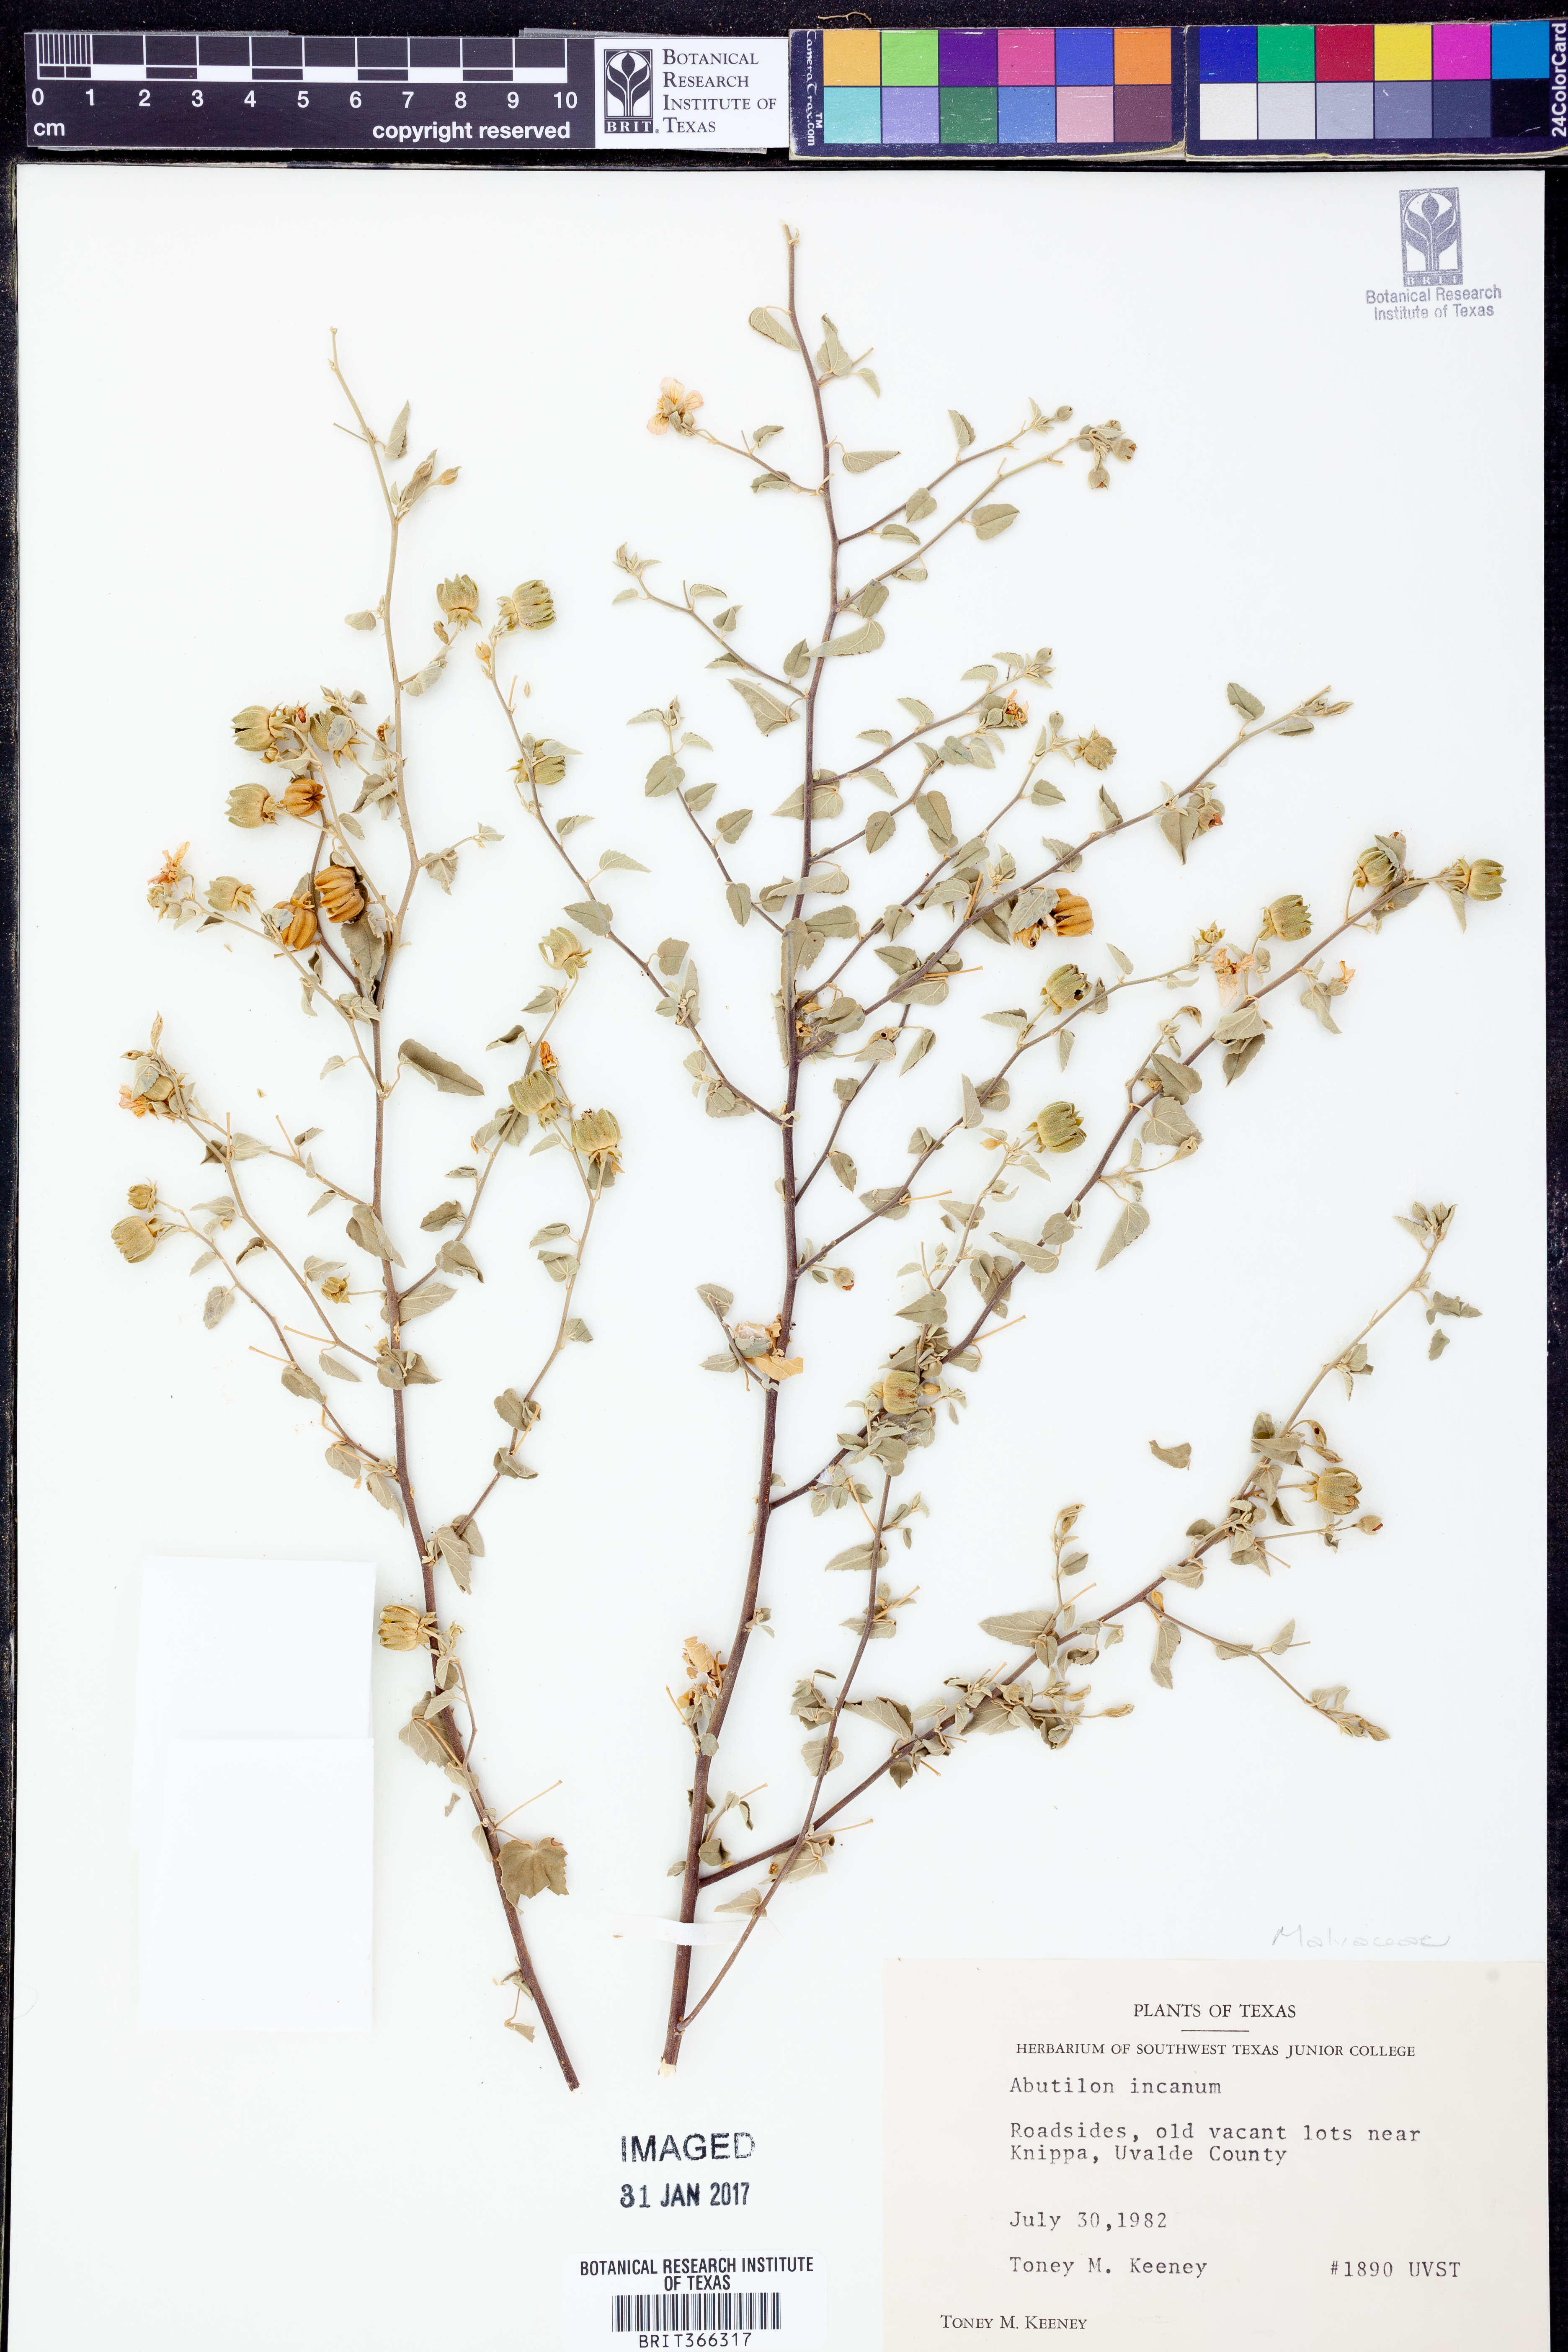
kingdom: Plantae
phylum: Tracheophyta
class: Magnoliopsida
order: Malvales
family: Malvaceae
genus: Abutilon
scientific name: Abutilon incanum
